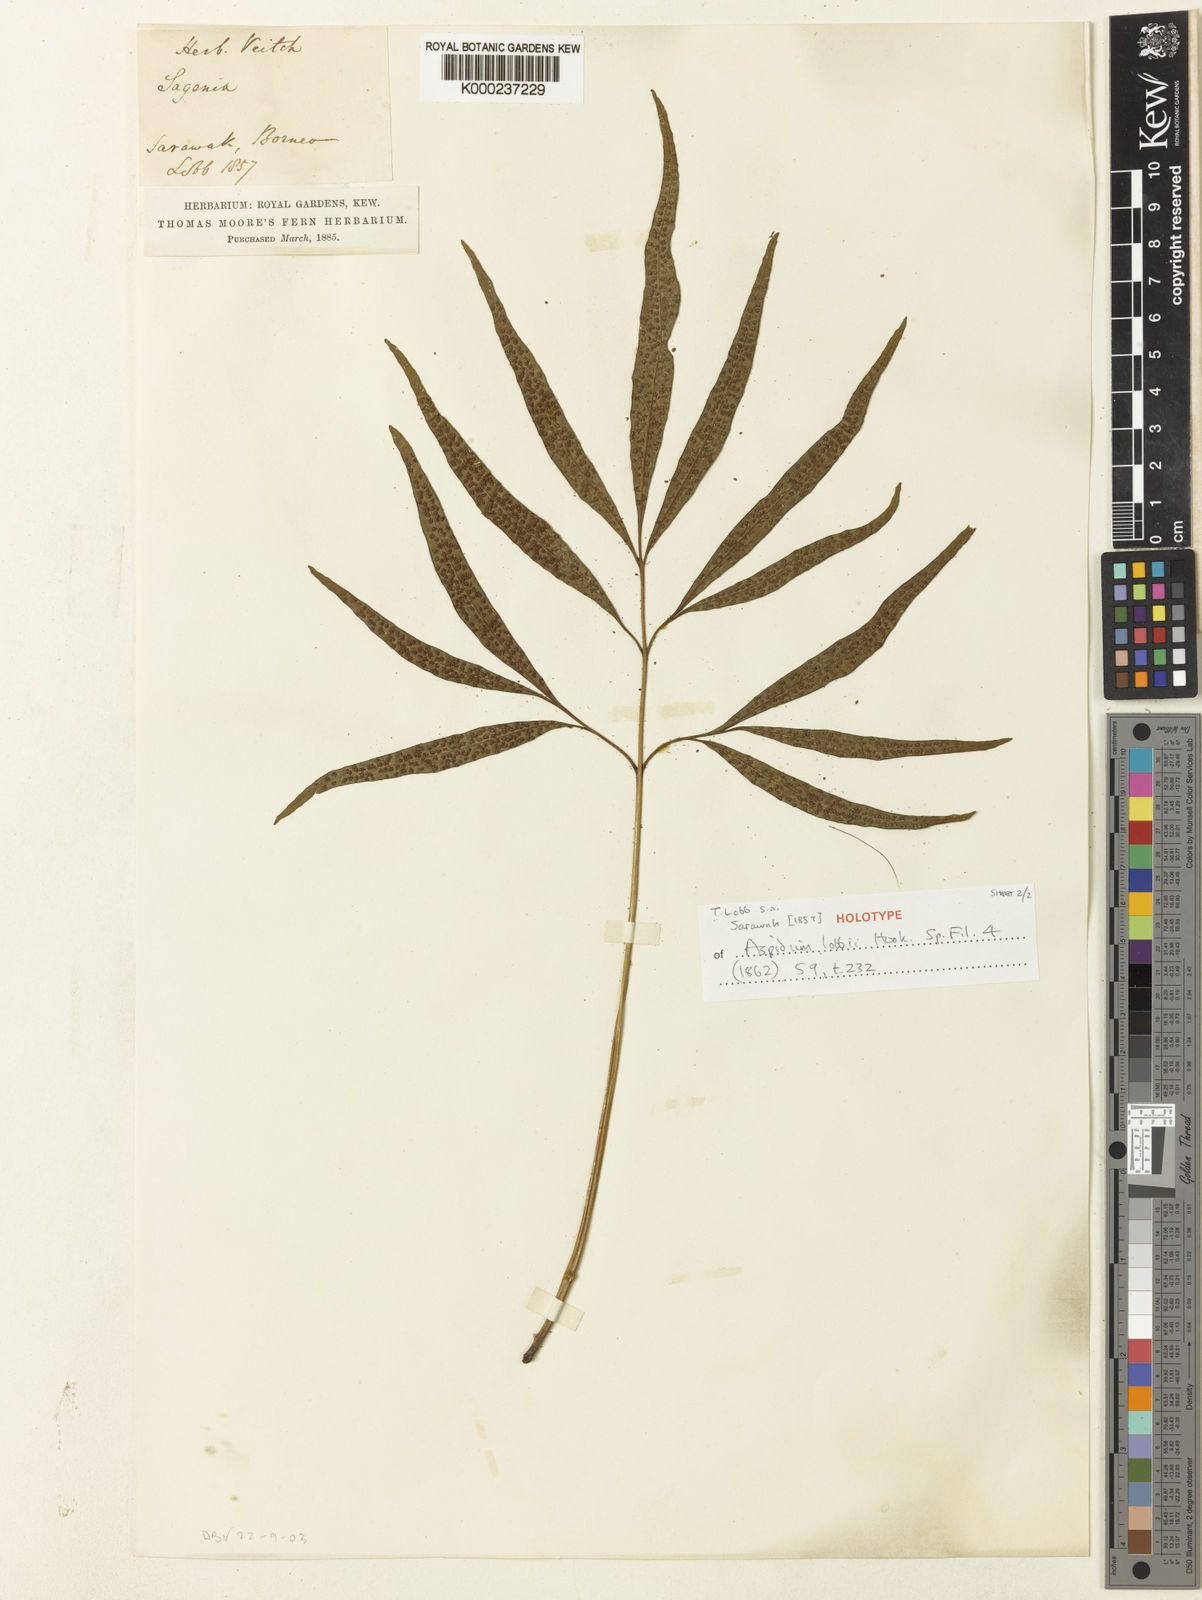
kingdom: Plantae
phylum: Tracheophyta
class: Polypodiopsida
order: Polypodiales
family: Tectariaceae
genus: Tectaria
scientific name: Tectaria lobbii
